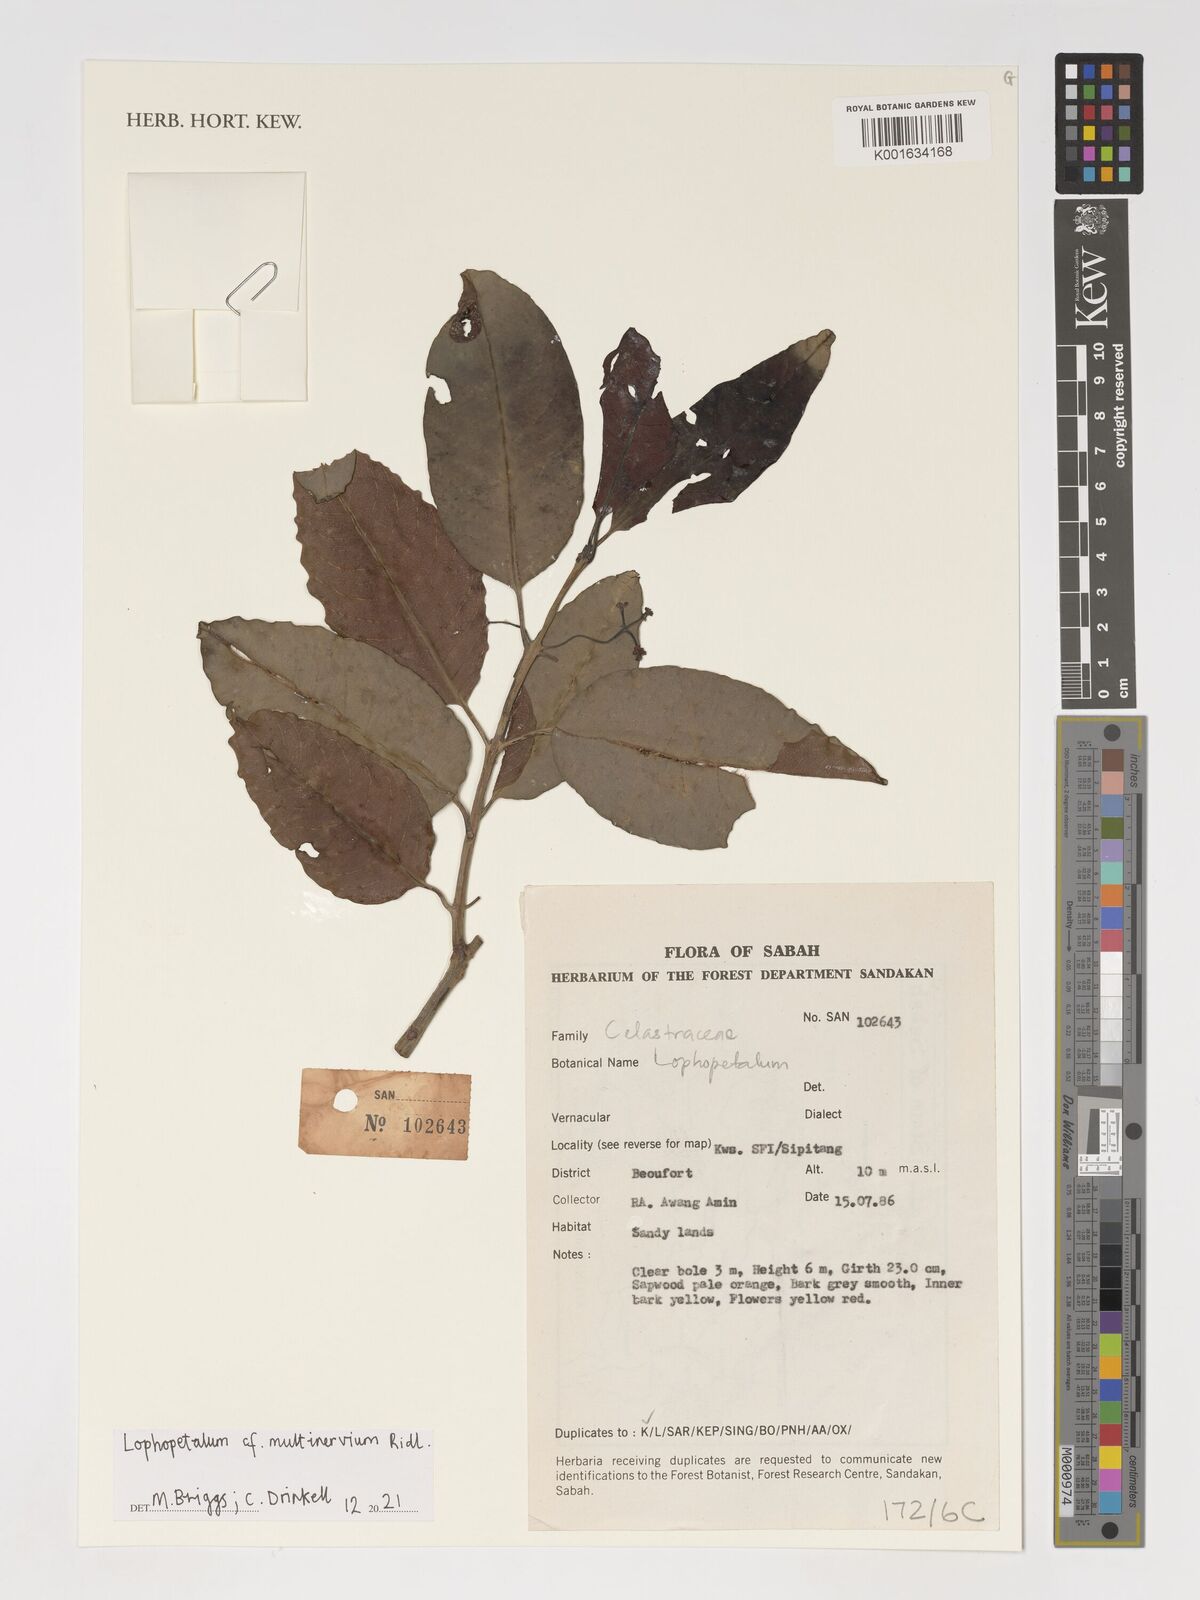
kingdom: Plantae
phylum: Tracheophyta
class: Magnoliopsida
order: Celastrales
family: Celastraceae
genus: Lophopetalum
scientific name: Lophopetalum multinervium
